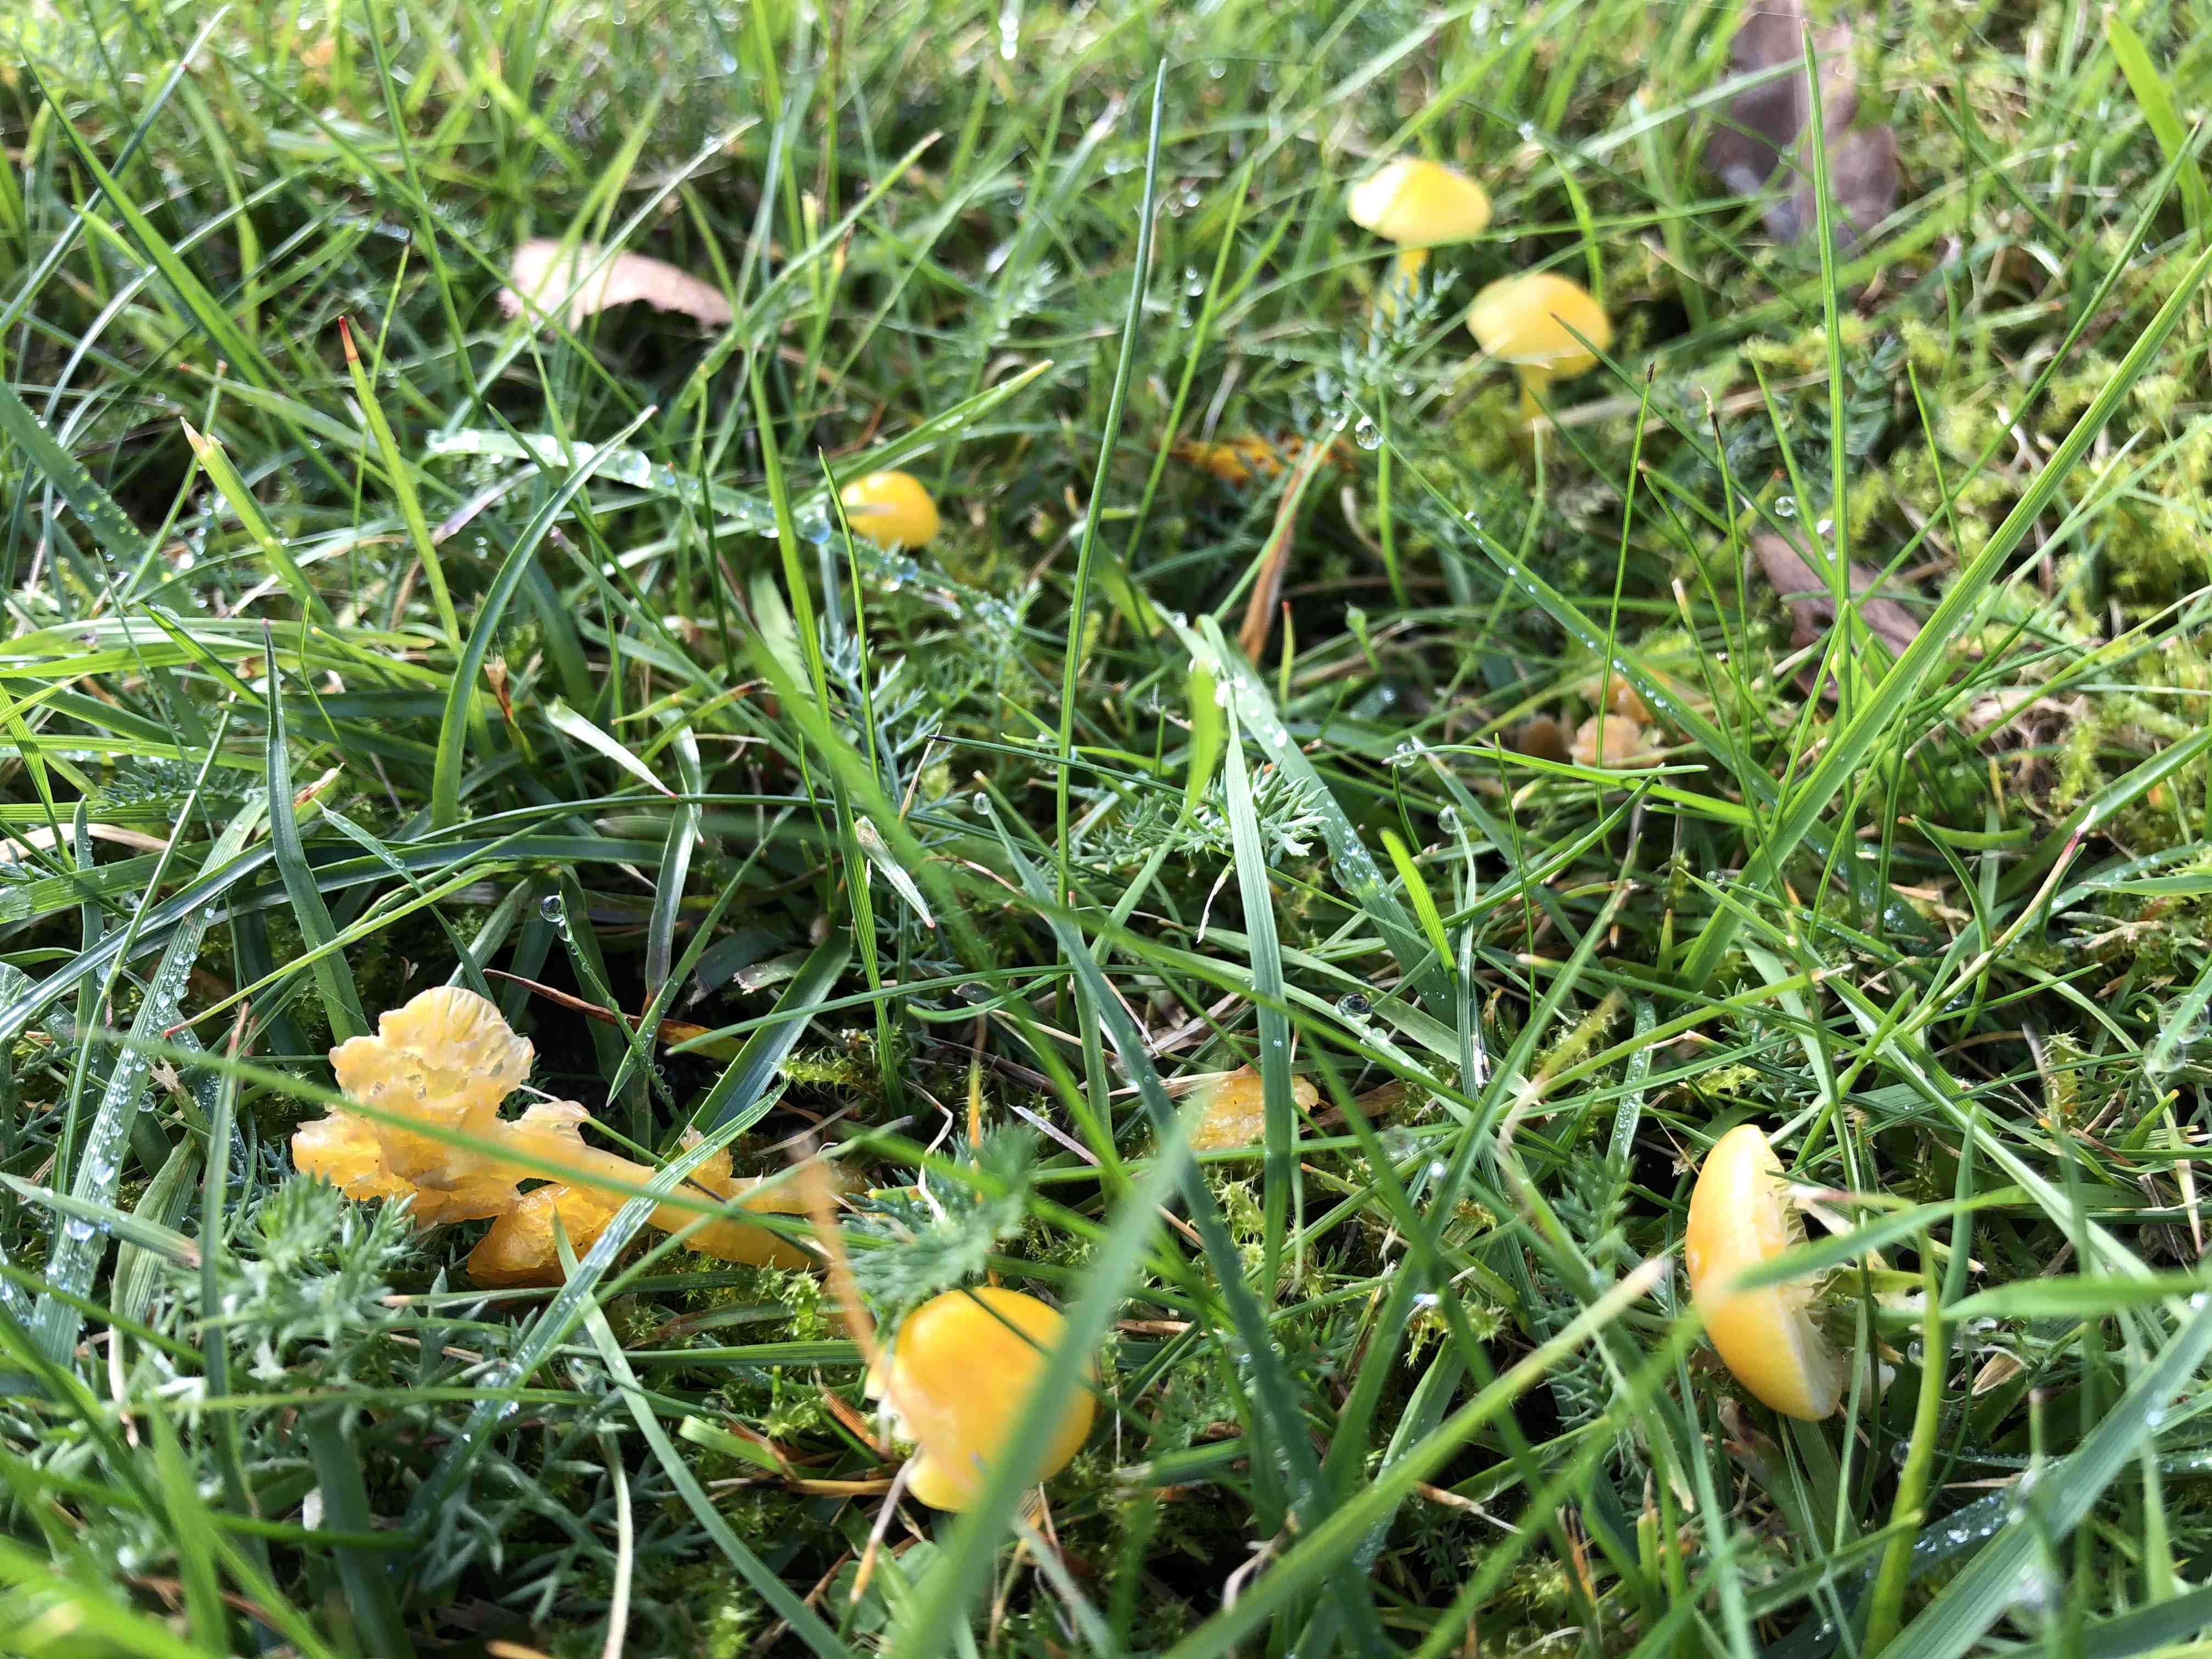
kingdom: Fungi
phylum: Basidiomycota
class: Agaricomycetes
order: Agaricales
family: Hygrophoraceae
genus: Hygrocybe
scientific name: Hygrocybe ceracea
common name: voksgul vokshat
